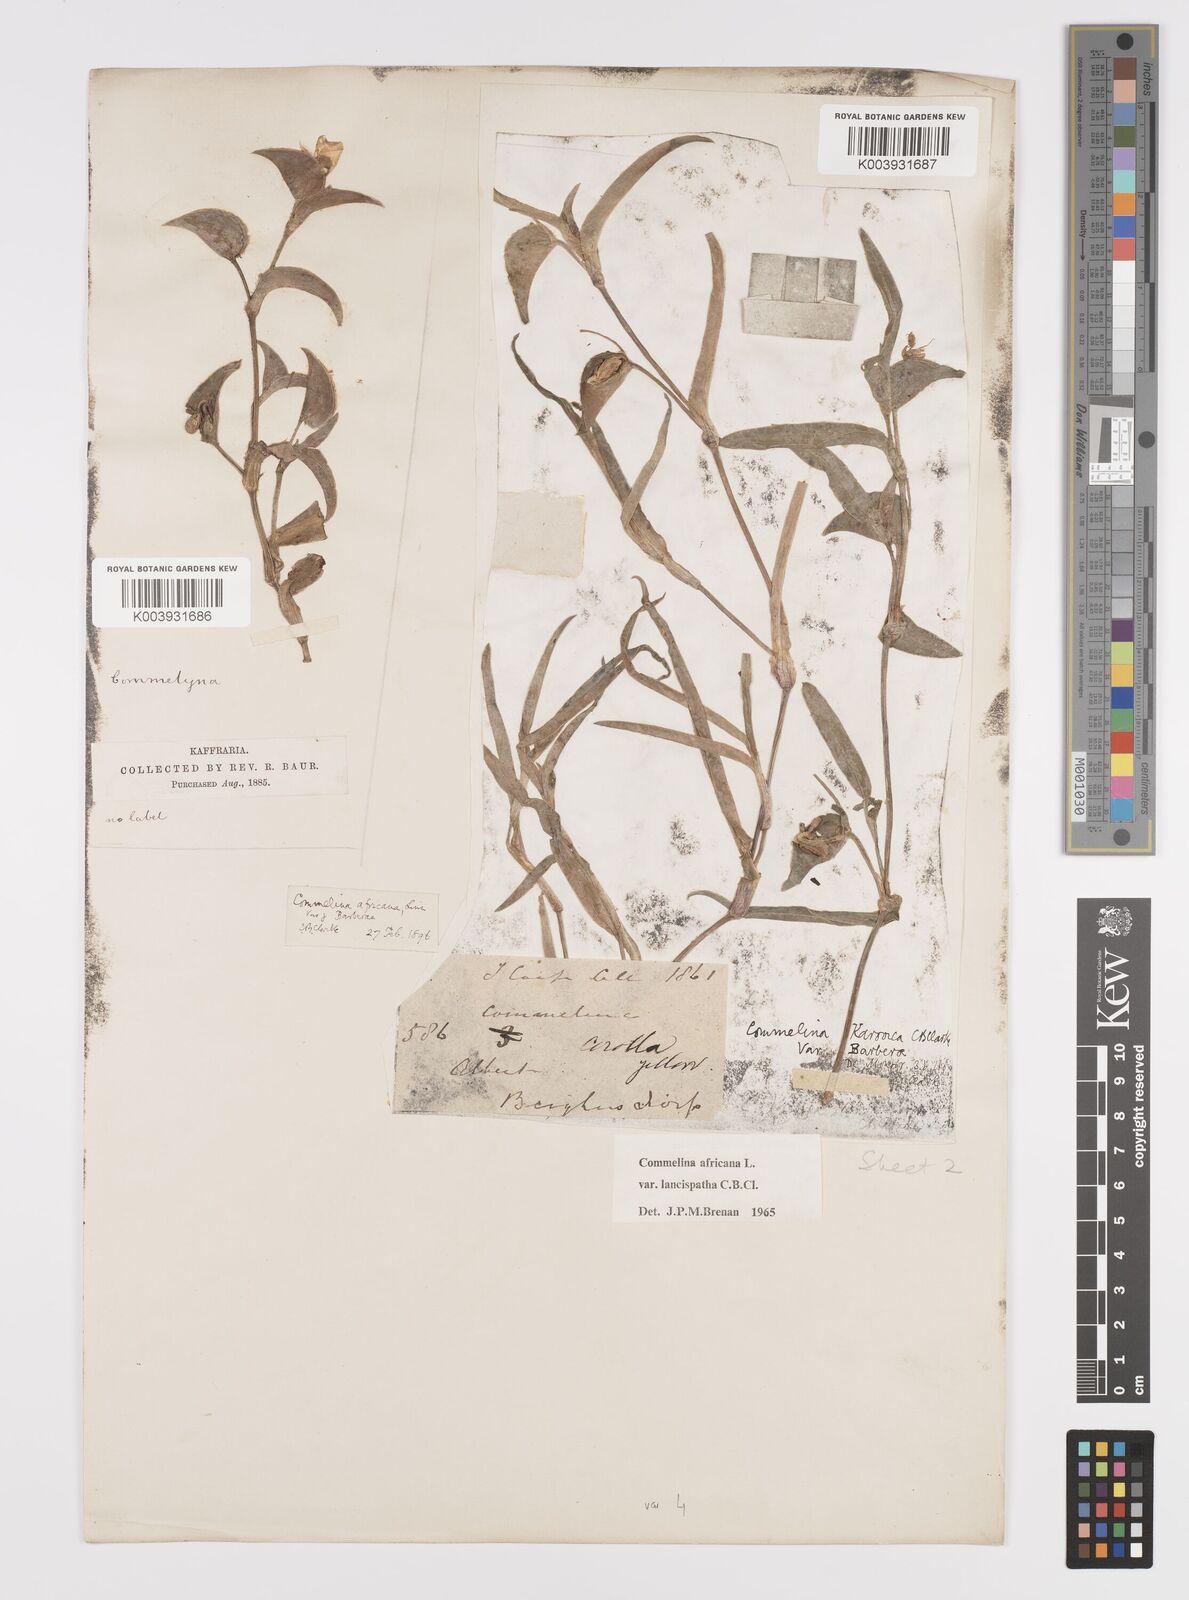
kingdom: Plantae
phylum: Tracheophyta
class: Liliopsida
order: Commelinales
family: Commelinaceae
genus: Commelina
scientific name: Commelina africana
